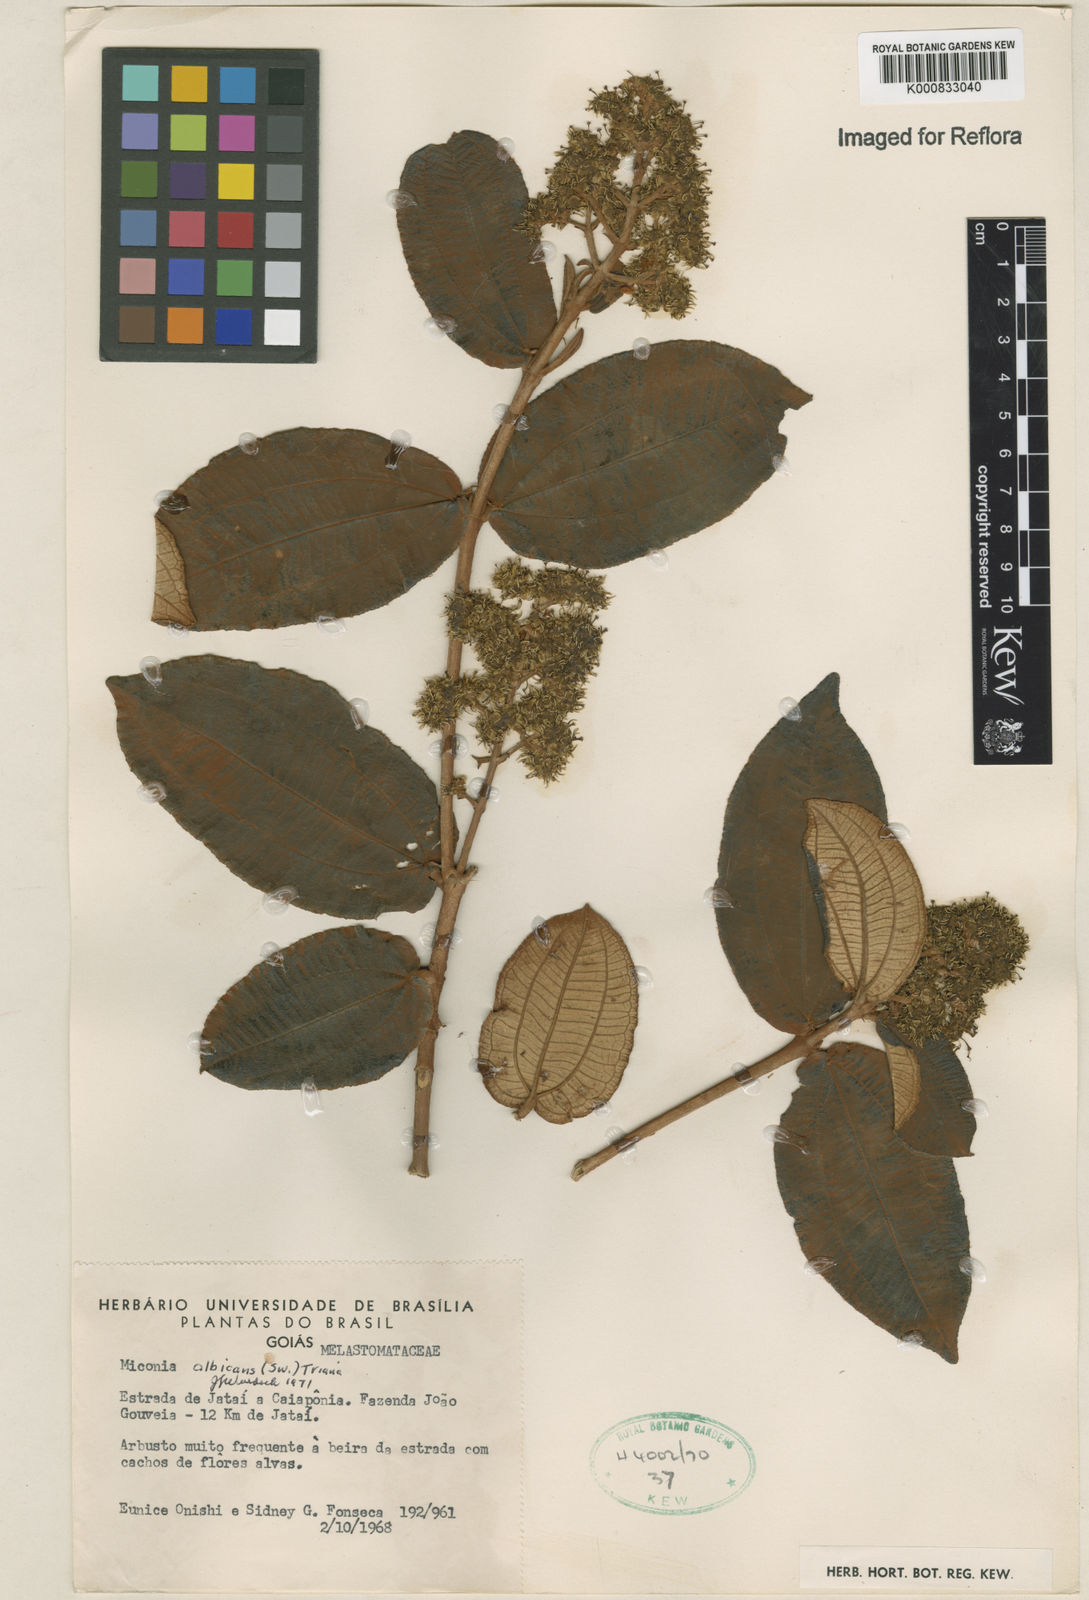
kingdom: Plantae
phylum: Tracheophyta
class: Magnoliopsida
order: Myrtales
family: Melastomataceae
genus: Miconia
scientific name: Miconia albicans
